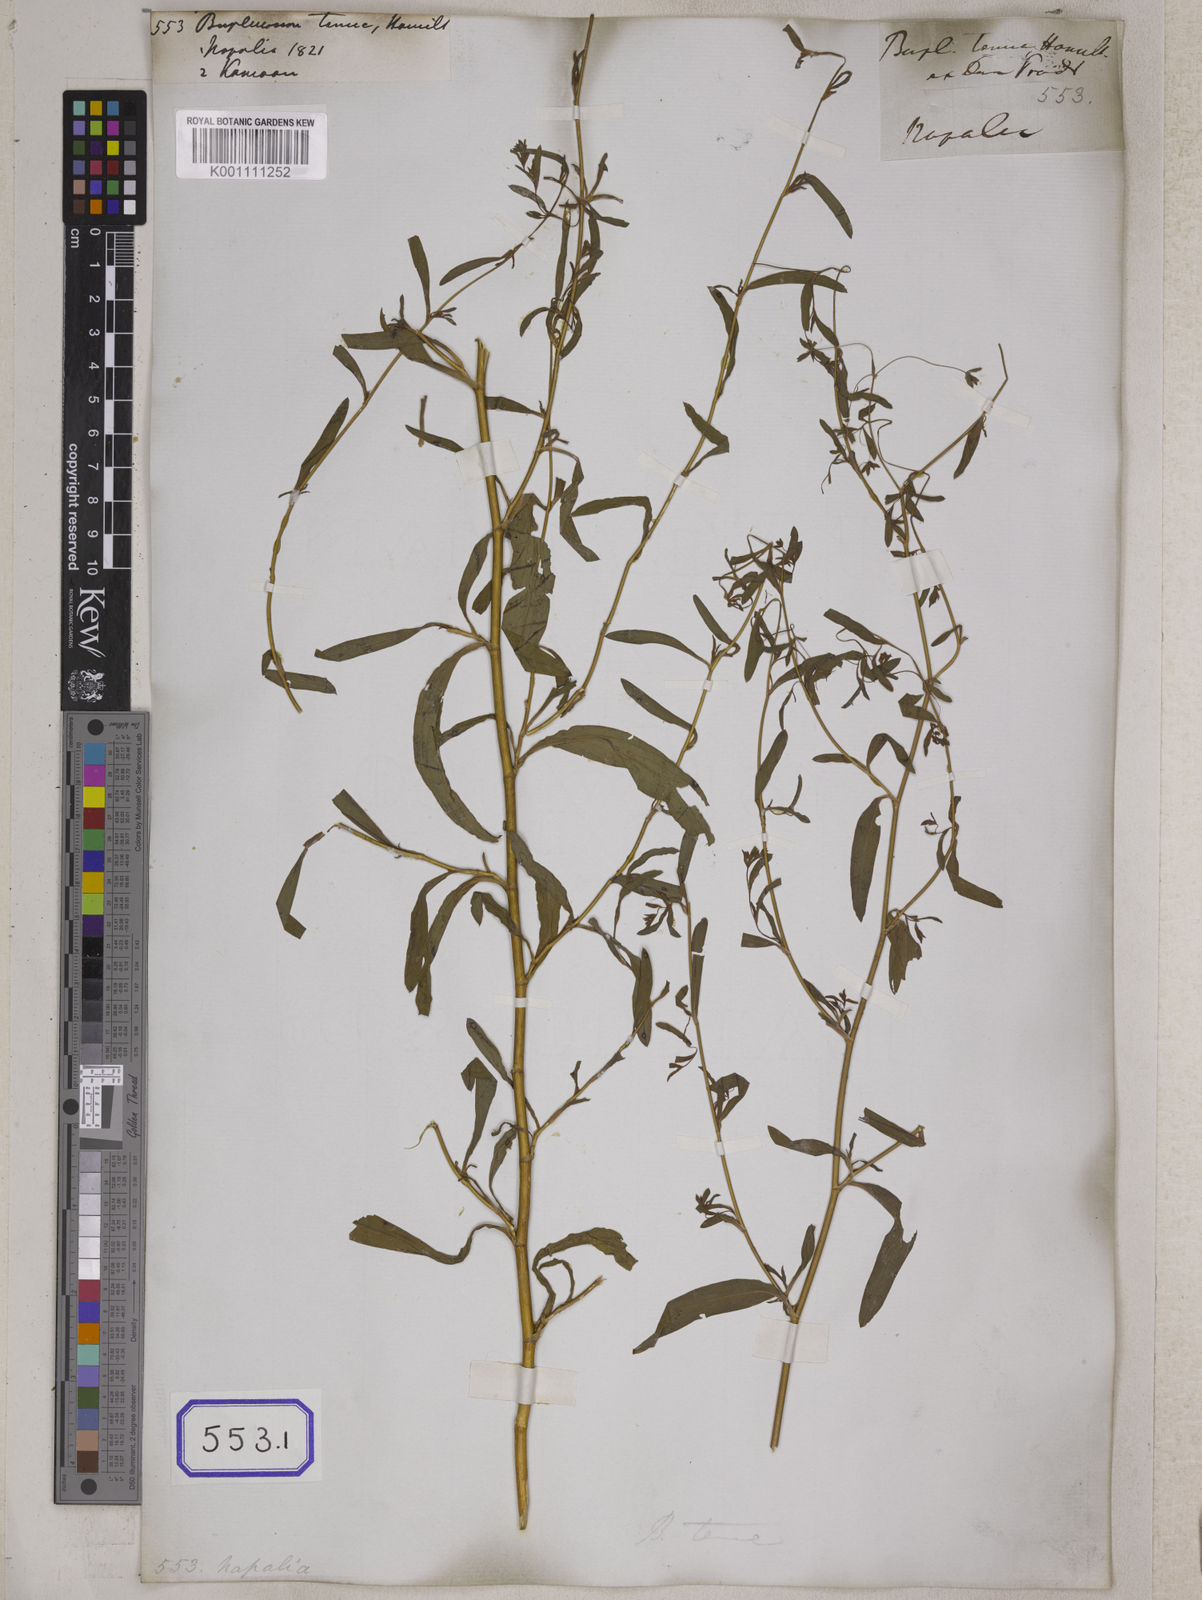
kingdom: Plantae
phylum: Tracheophyta
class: Magnoliopsida
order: Apiales
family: Apiaceae
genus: Bupleurum
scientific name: Bupleurum
